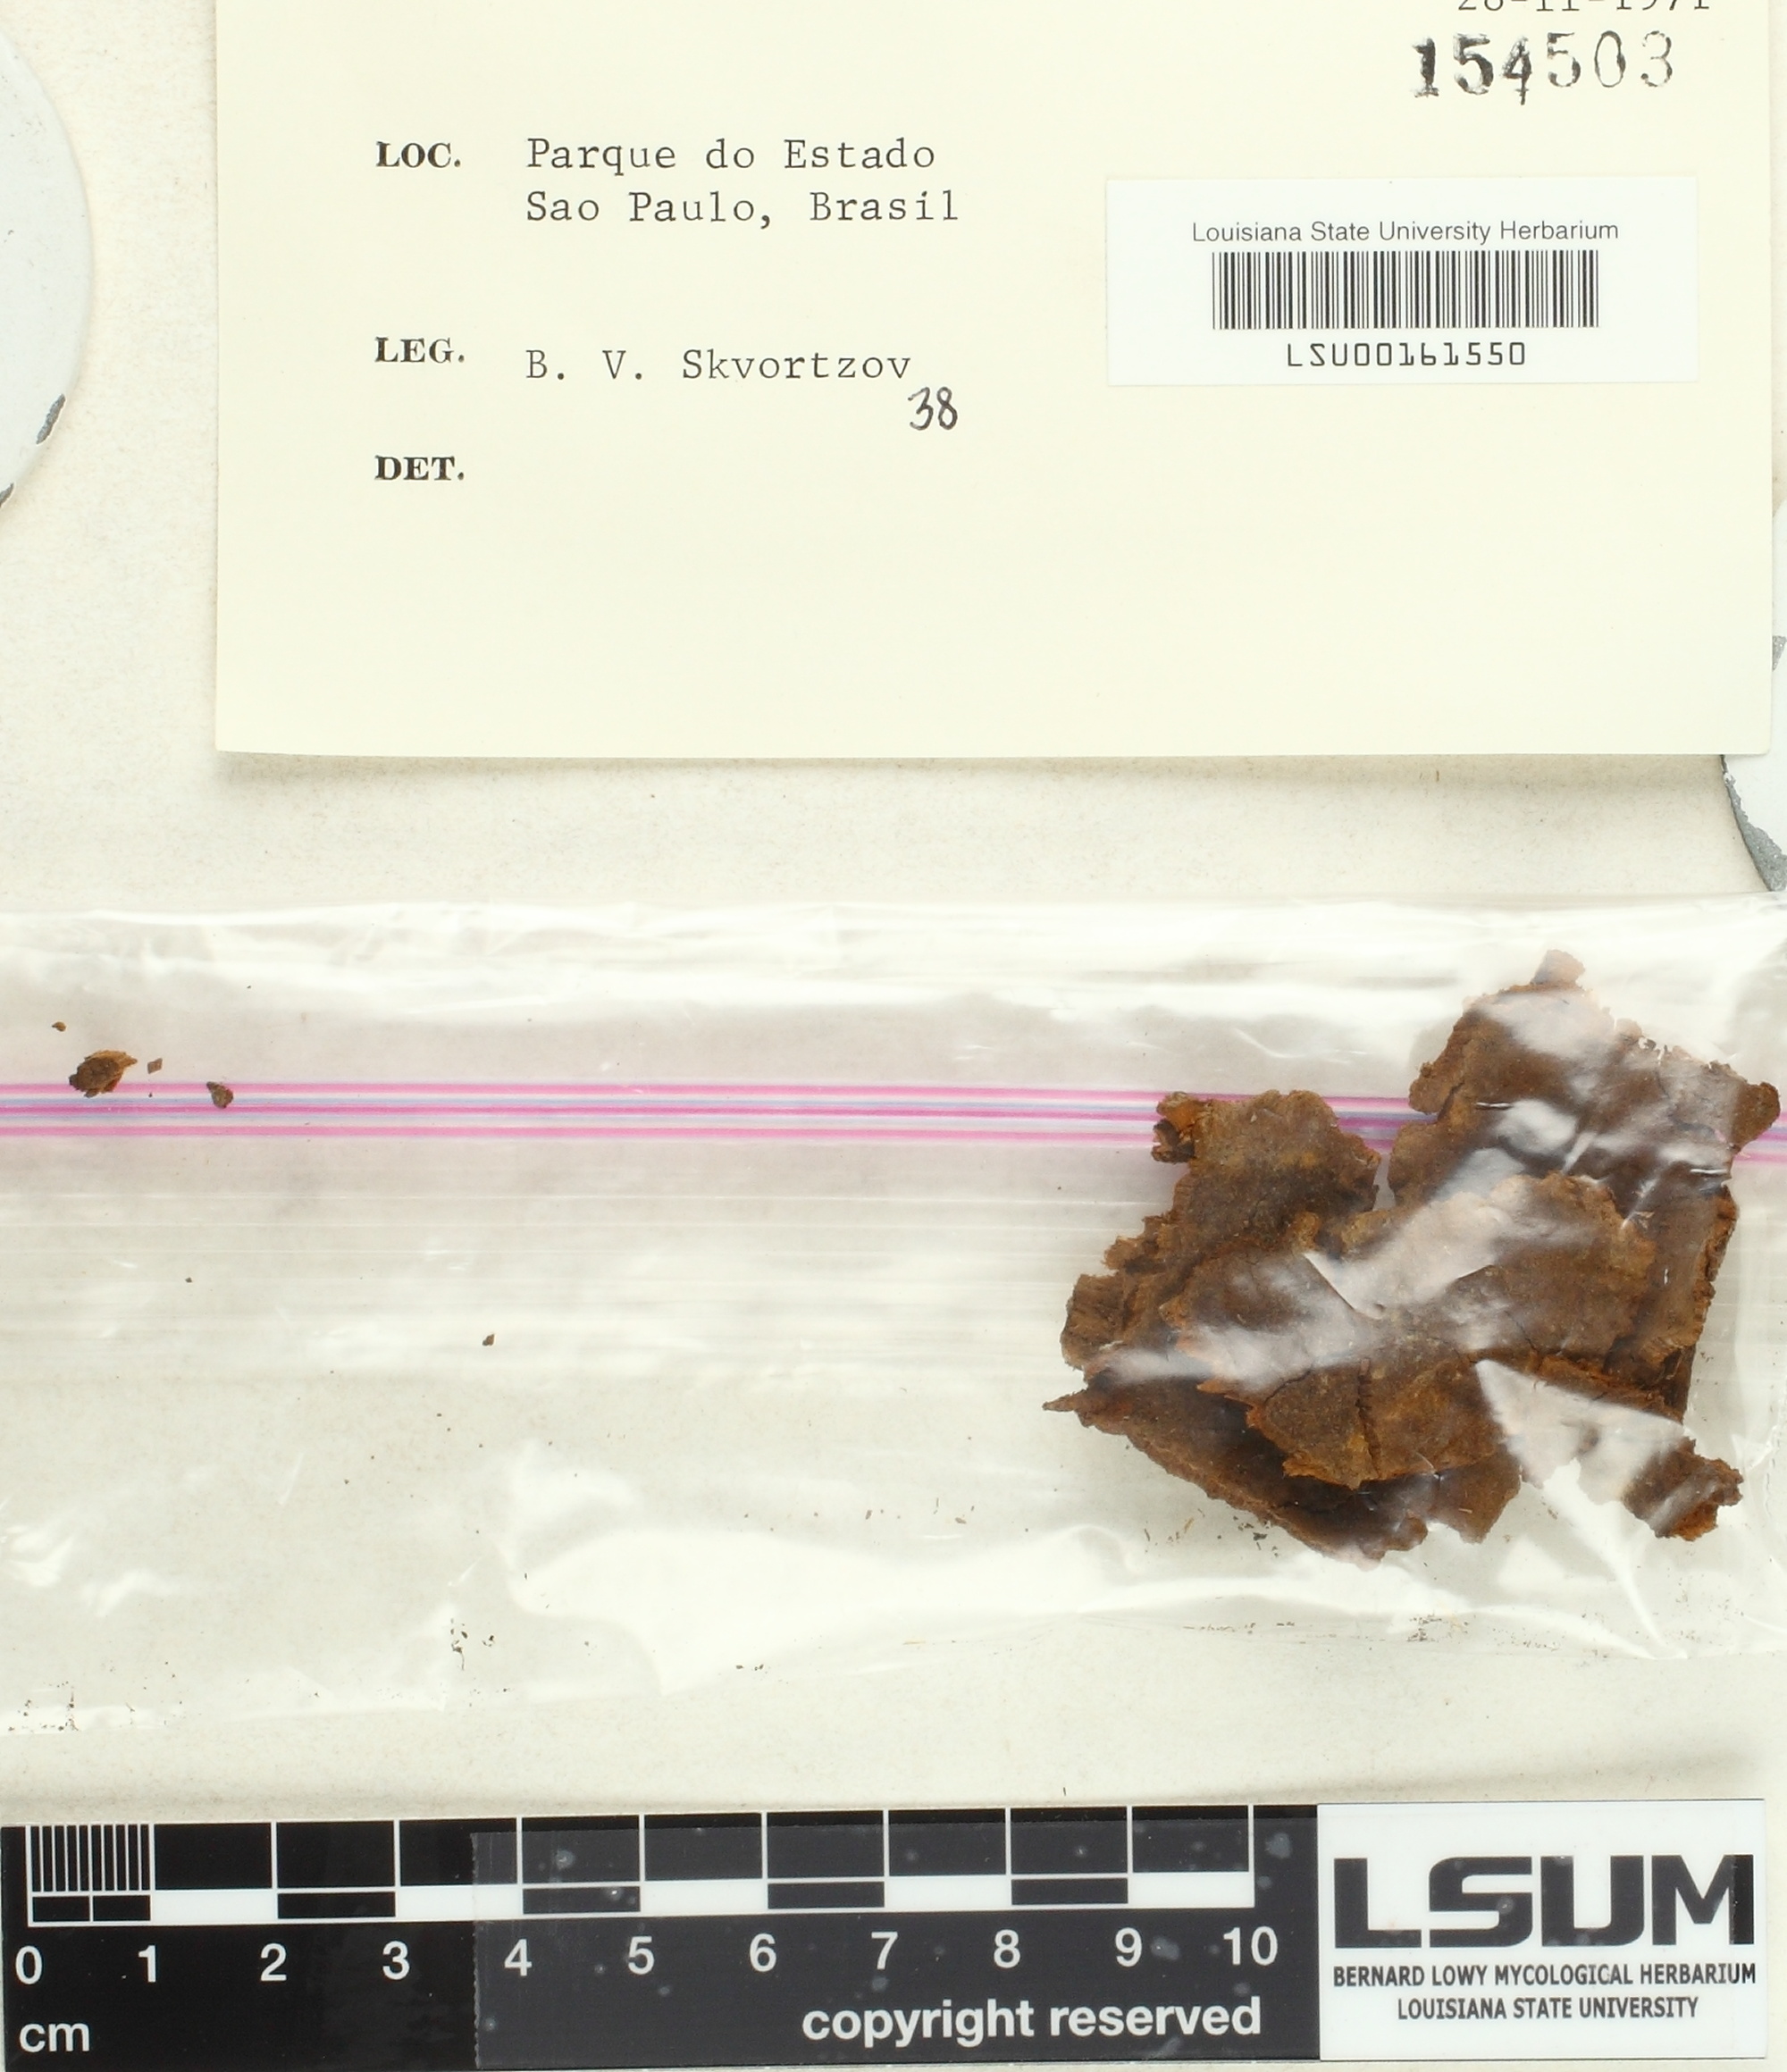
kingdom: Fungi
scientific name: Fungi
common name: Fungi
